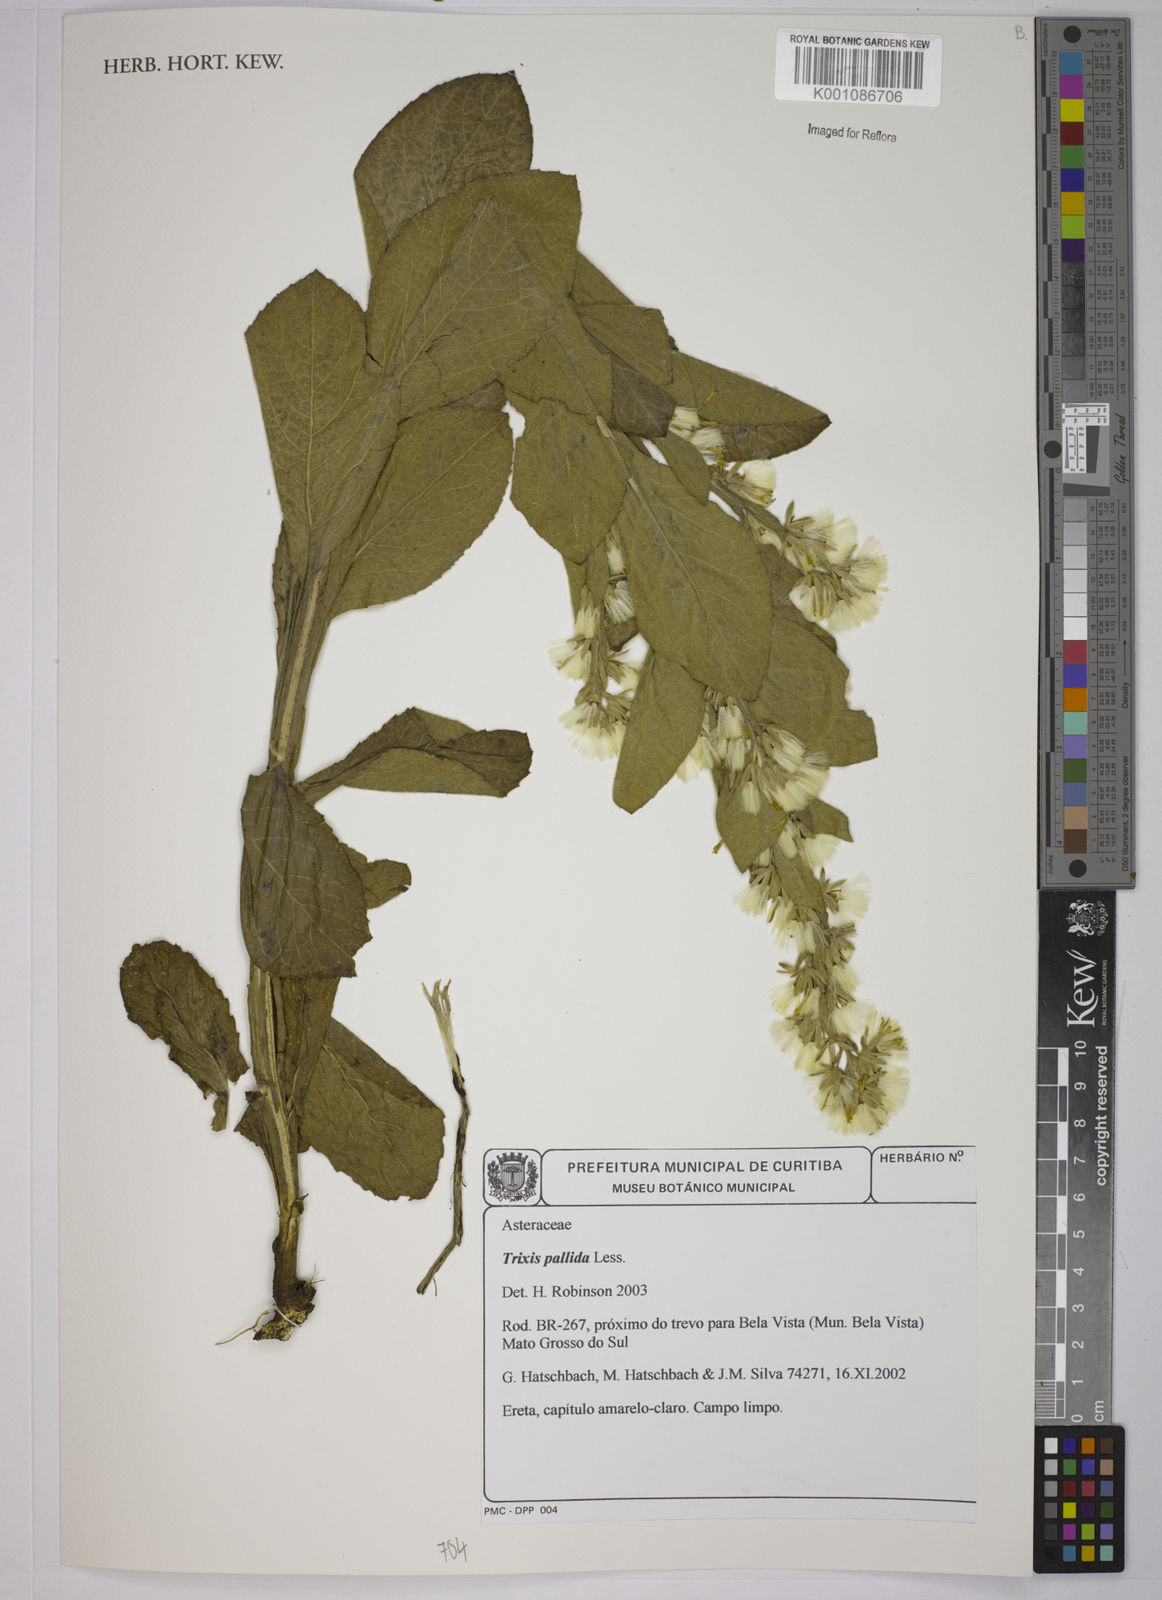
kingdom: Plantae
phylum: Tracheophyta
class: Magnoliopsida
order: Asterales
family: Asteraceae
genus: Trixis
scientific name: Trixis pallida
